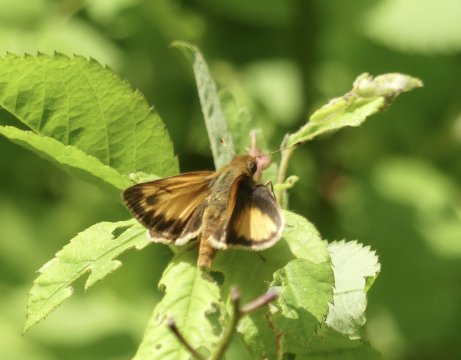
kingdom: Animalia
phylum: Arthropoda
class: Insecta
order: Lepidoptera
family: Hesperiidae
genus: Lon
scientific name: Lon zabulon
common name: Zabulon Skipper
